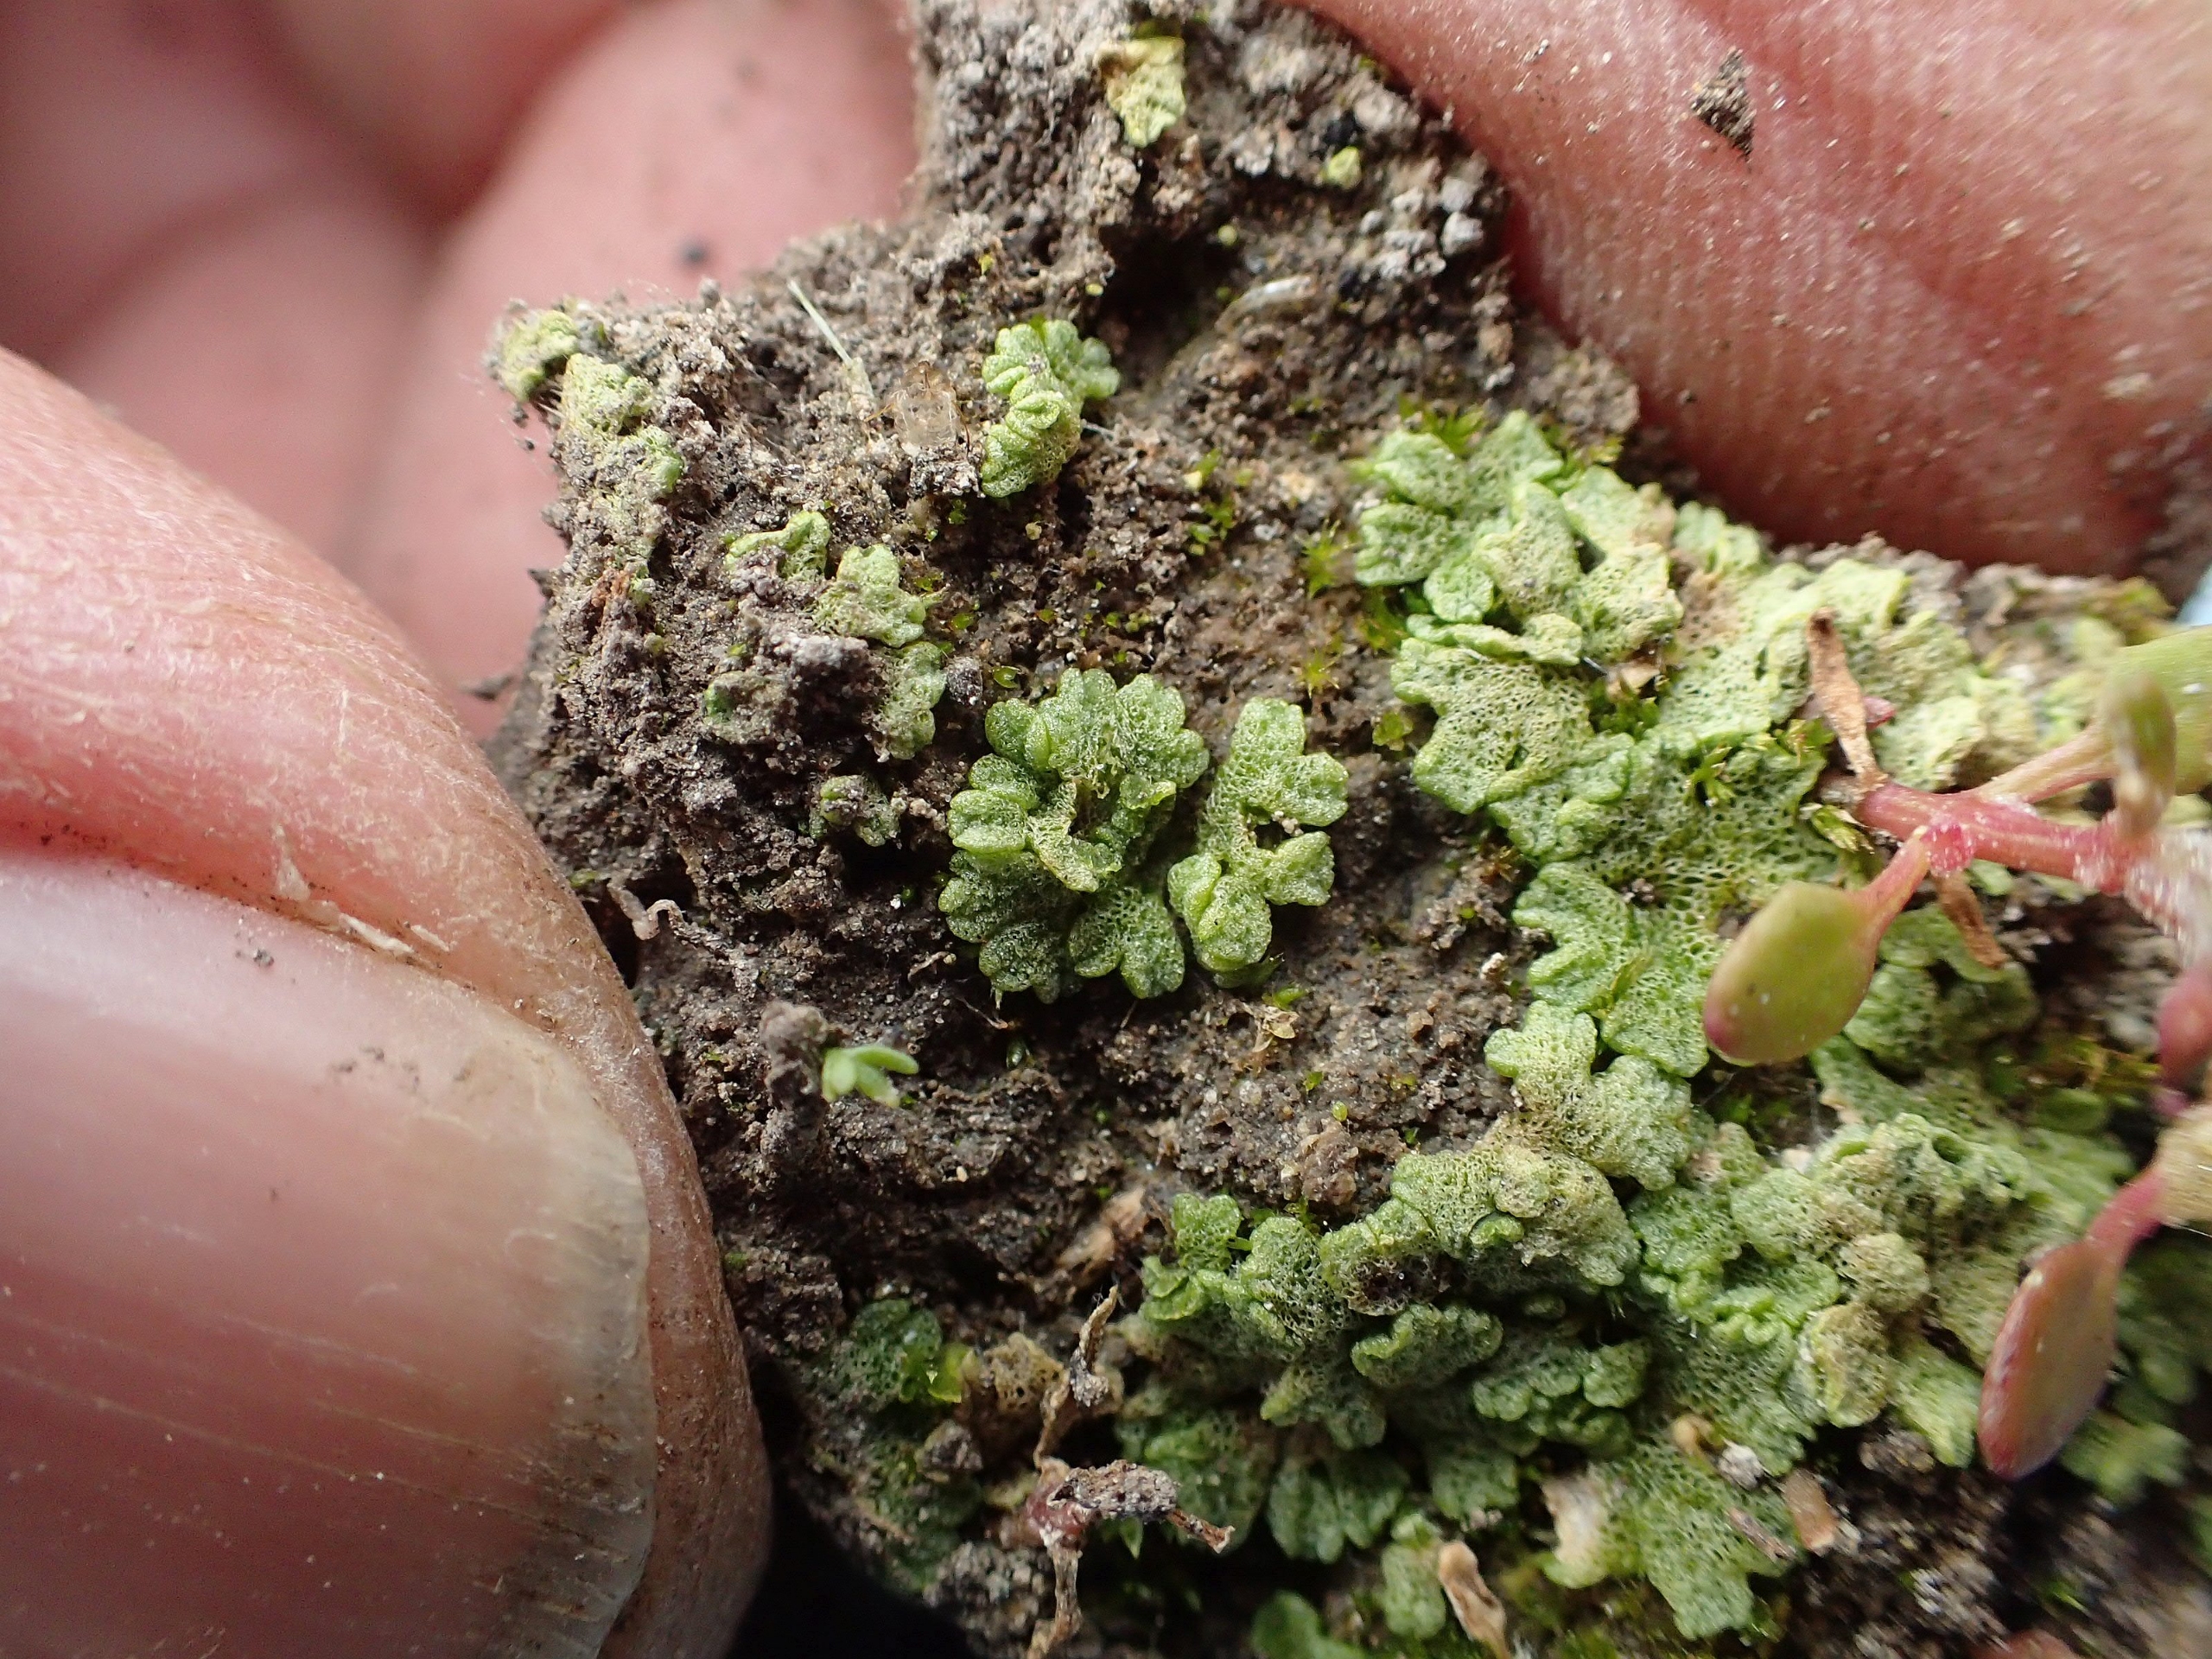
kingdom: Plantae
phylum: Marchantiophyta
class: Marchantiopsida
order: Marchantiales
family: Ricciaceae
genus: Riccia
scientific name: Riccia cavernosa
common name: Grubet stjerneløv
